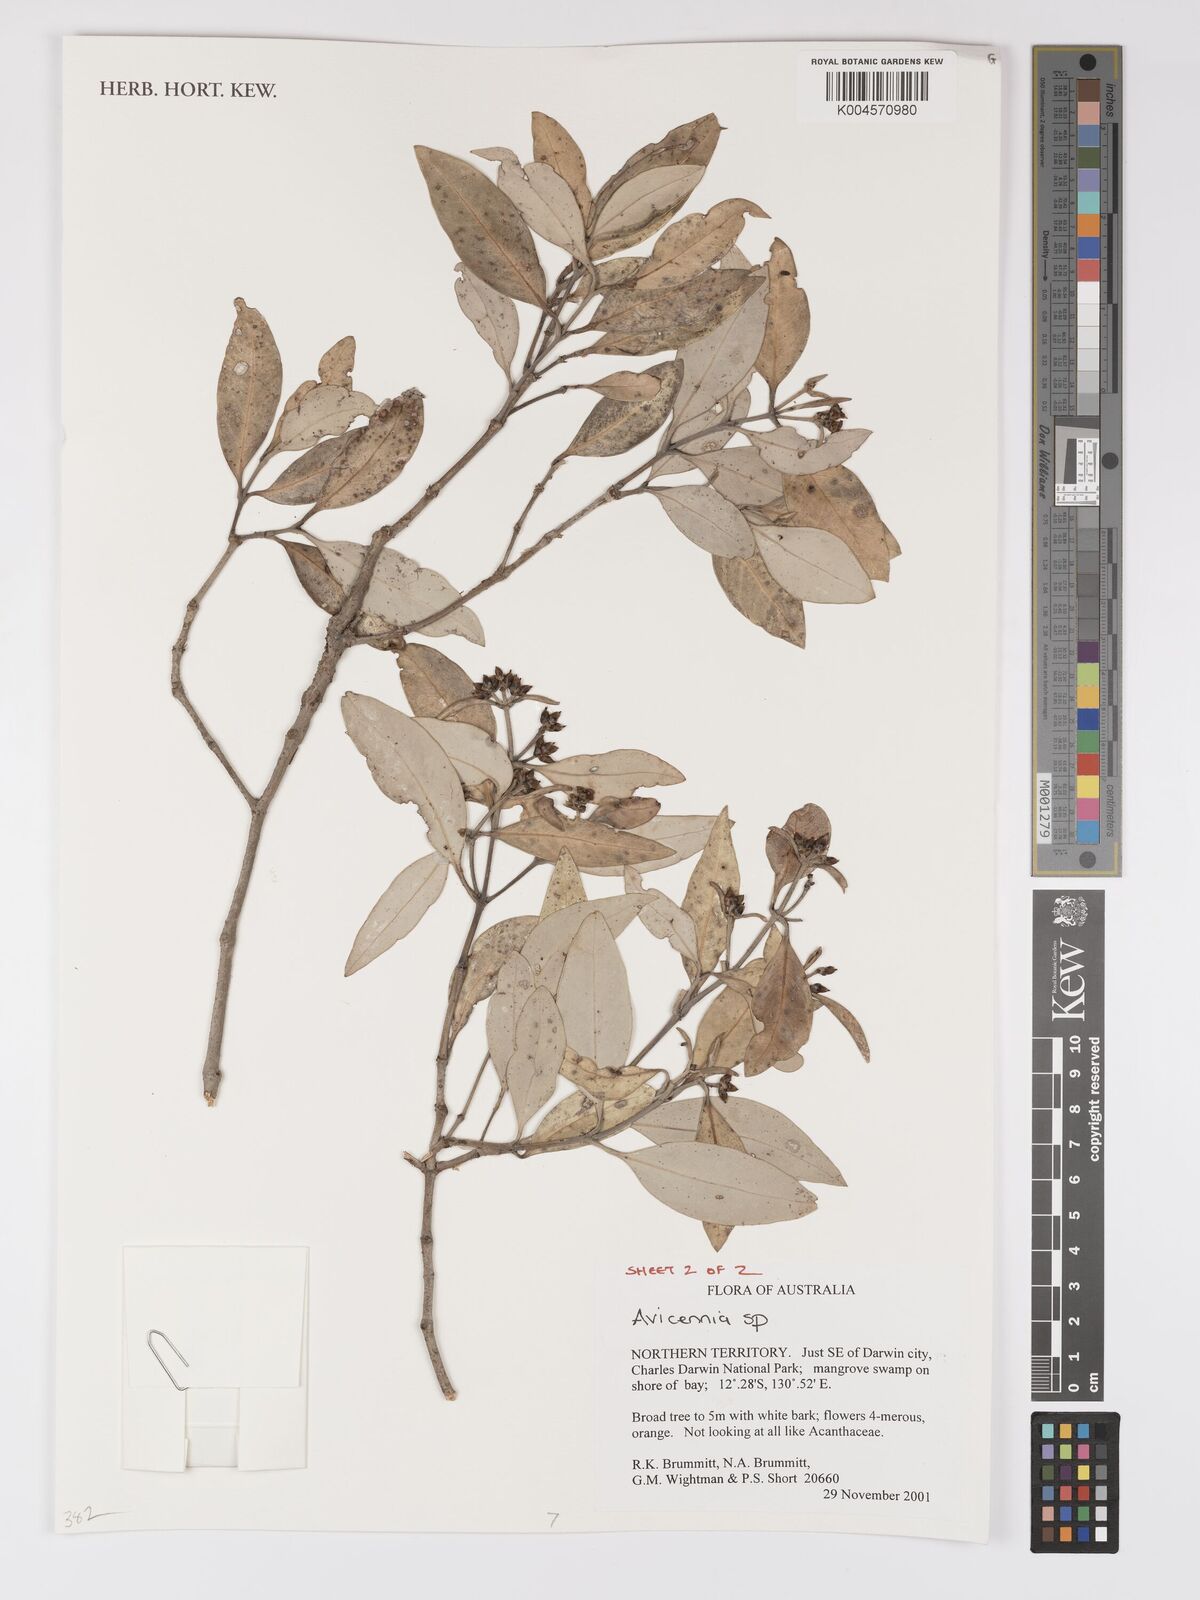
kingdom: Plantae
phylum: Tracheophyta
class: Magnoliopsida
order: Lamiales
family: Acanthaceae
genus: Avicennia
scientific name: Avicennia
